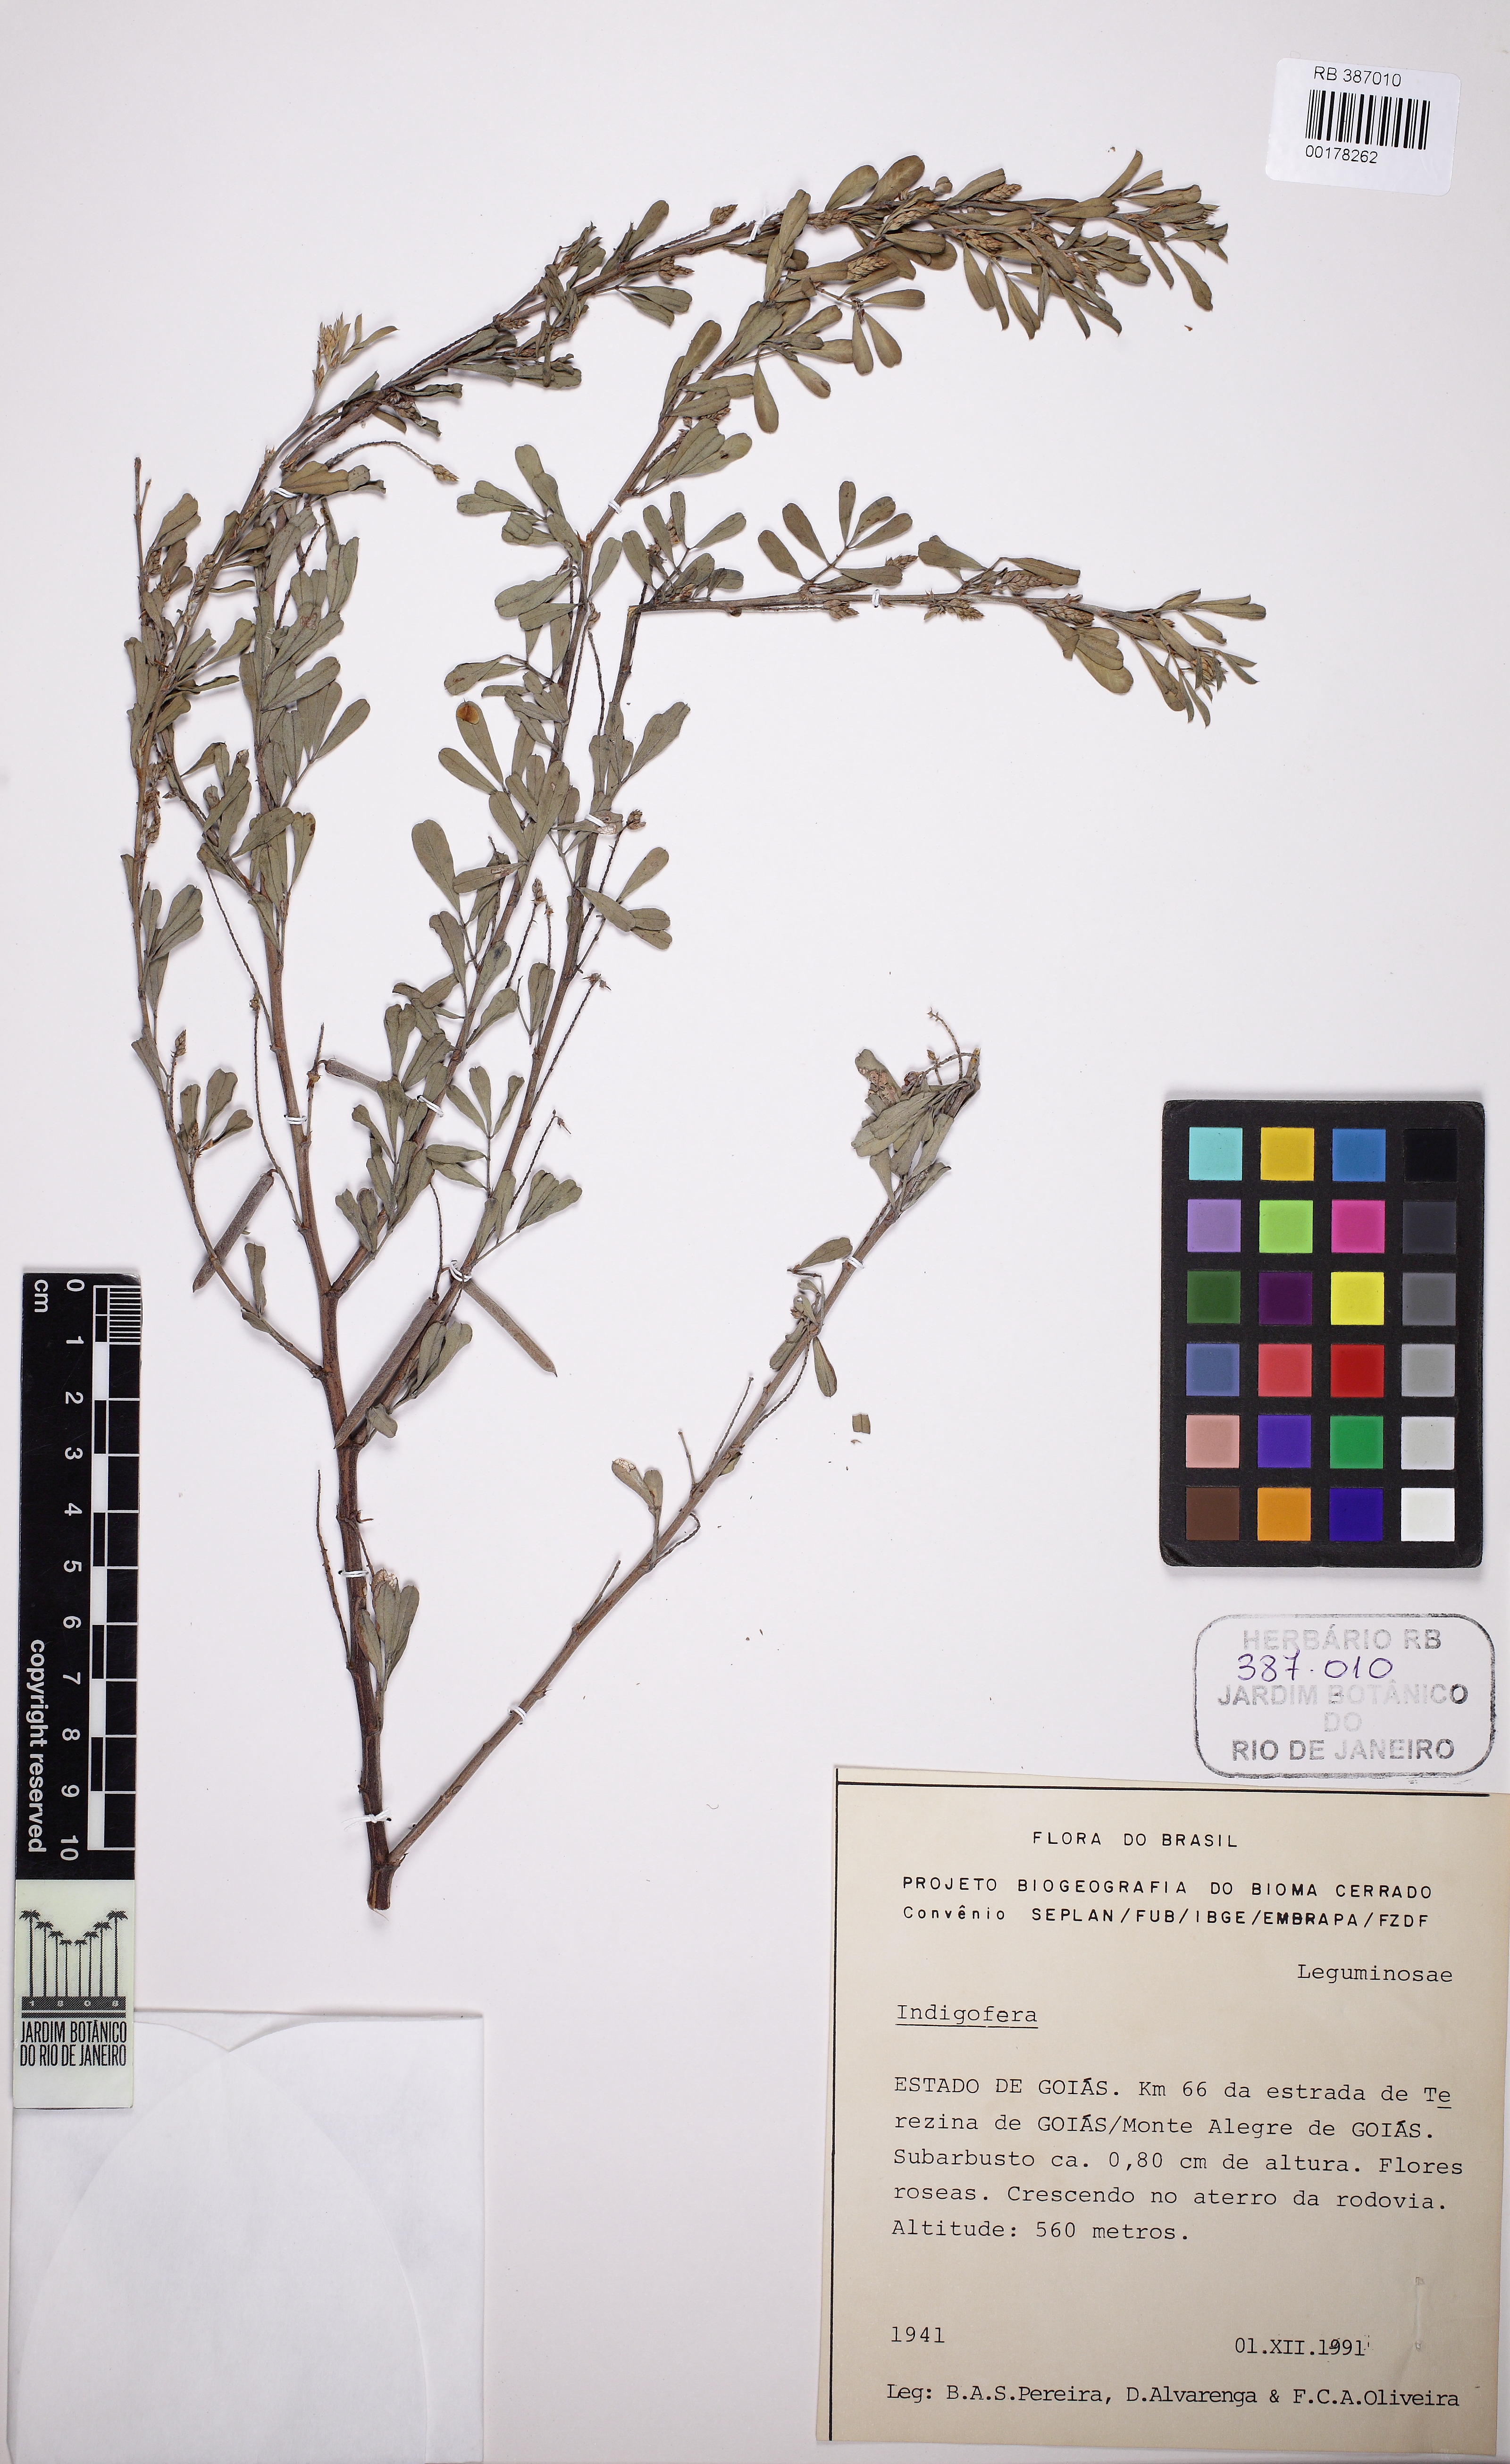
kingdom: Plantae
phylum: Tracheophyta
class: Magnoliopsida
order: Fabales
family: Fabaceae
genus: Indigofera
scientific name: Indigofera
